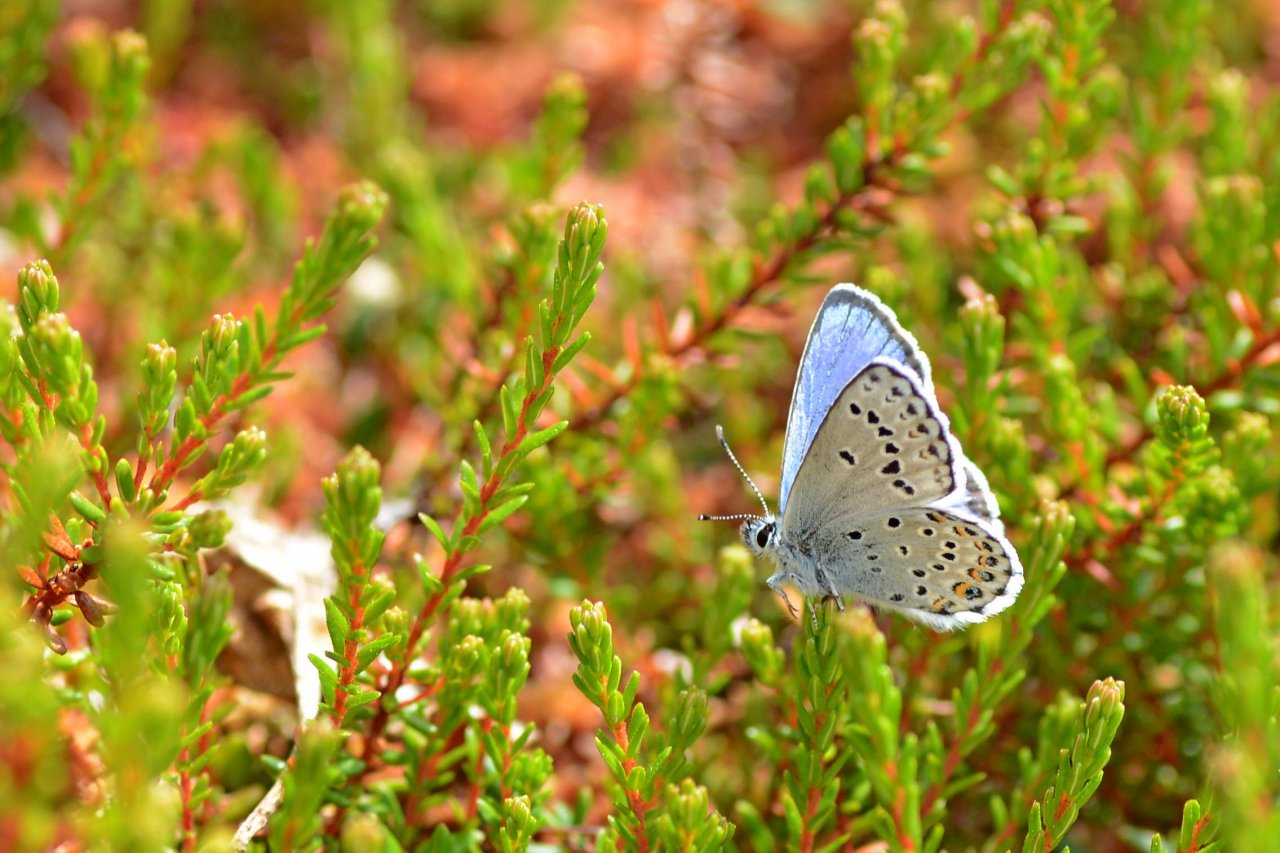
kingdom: Animalia
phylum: Arthropoda
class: Insecta
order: Lepidoptera
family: Lycaenidae
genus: Lycaeides
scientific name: Lycaeides idas
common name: Northern Blue
